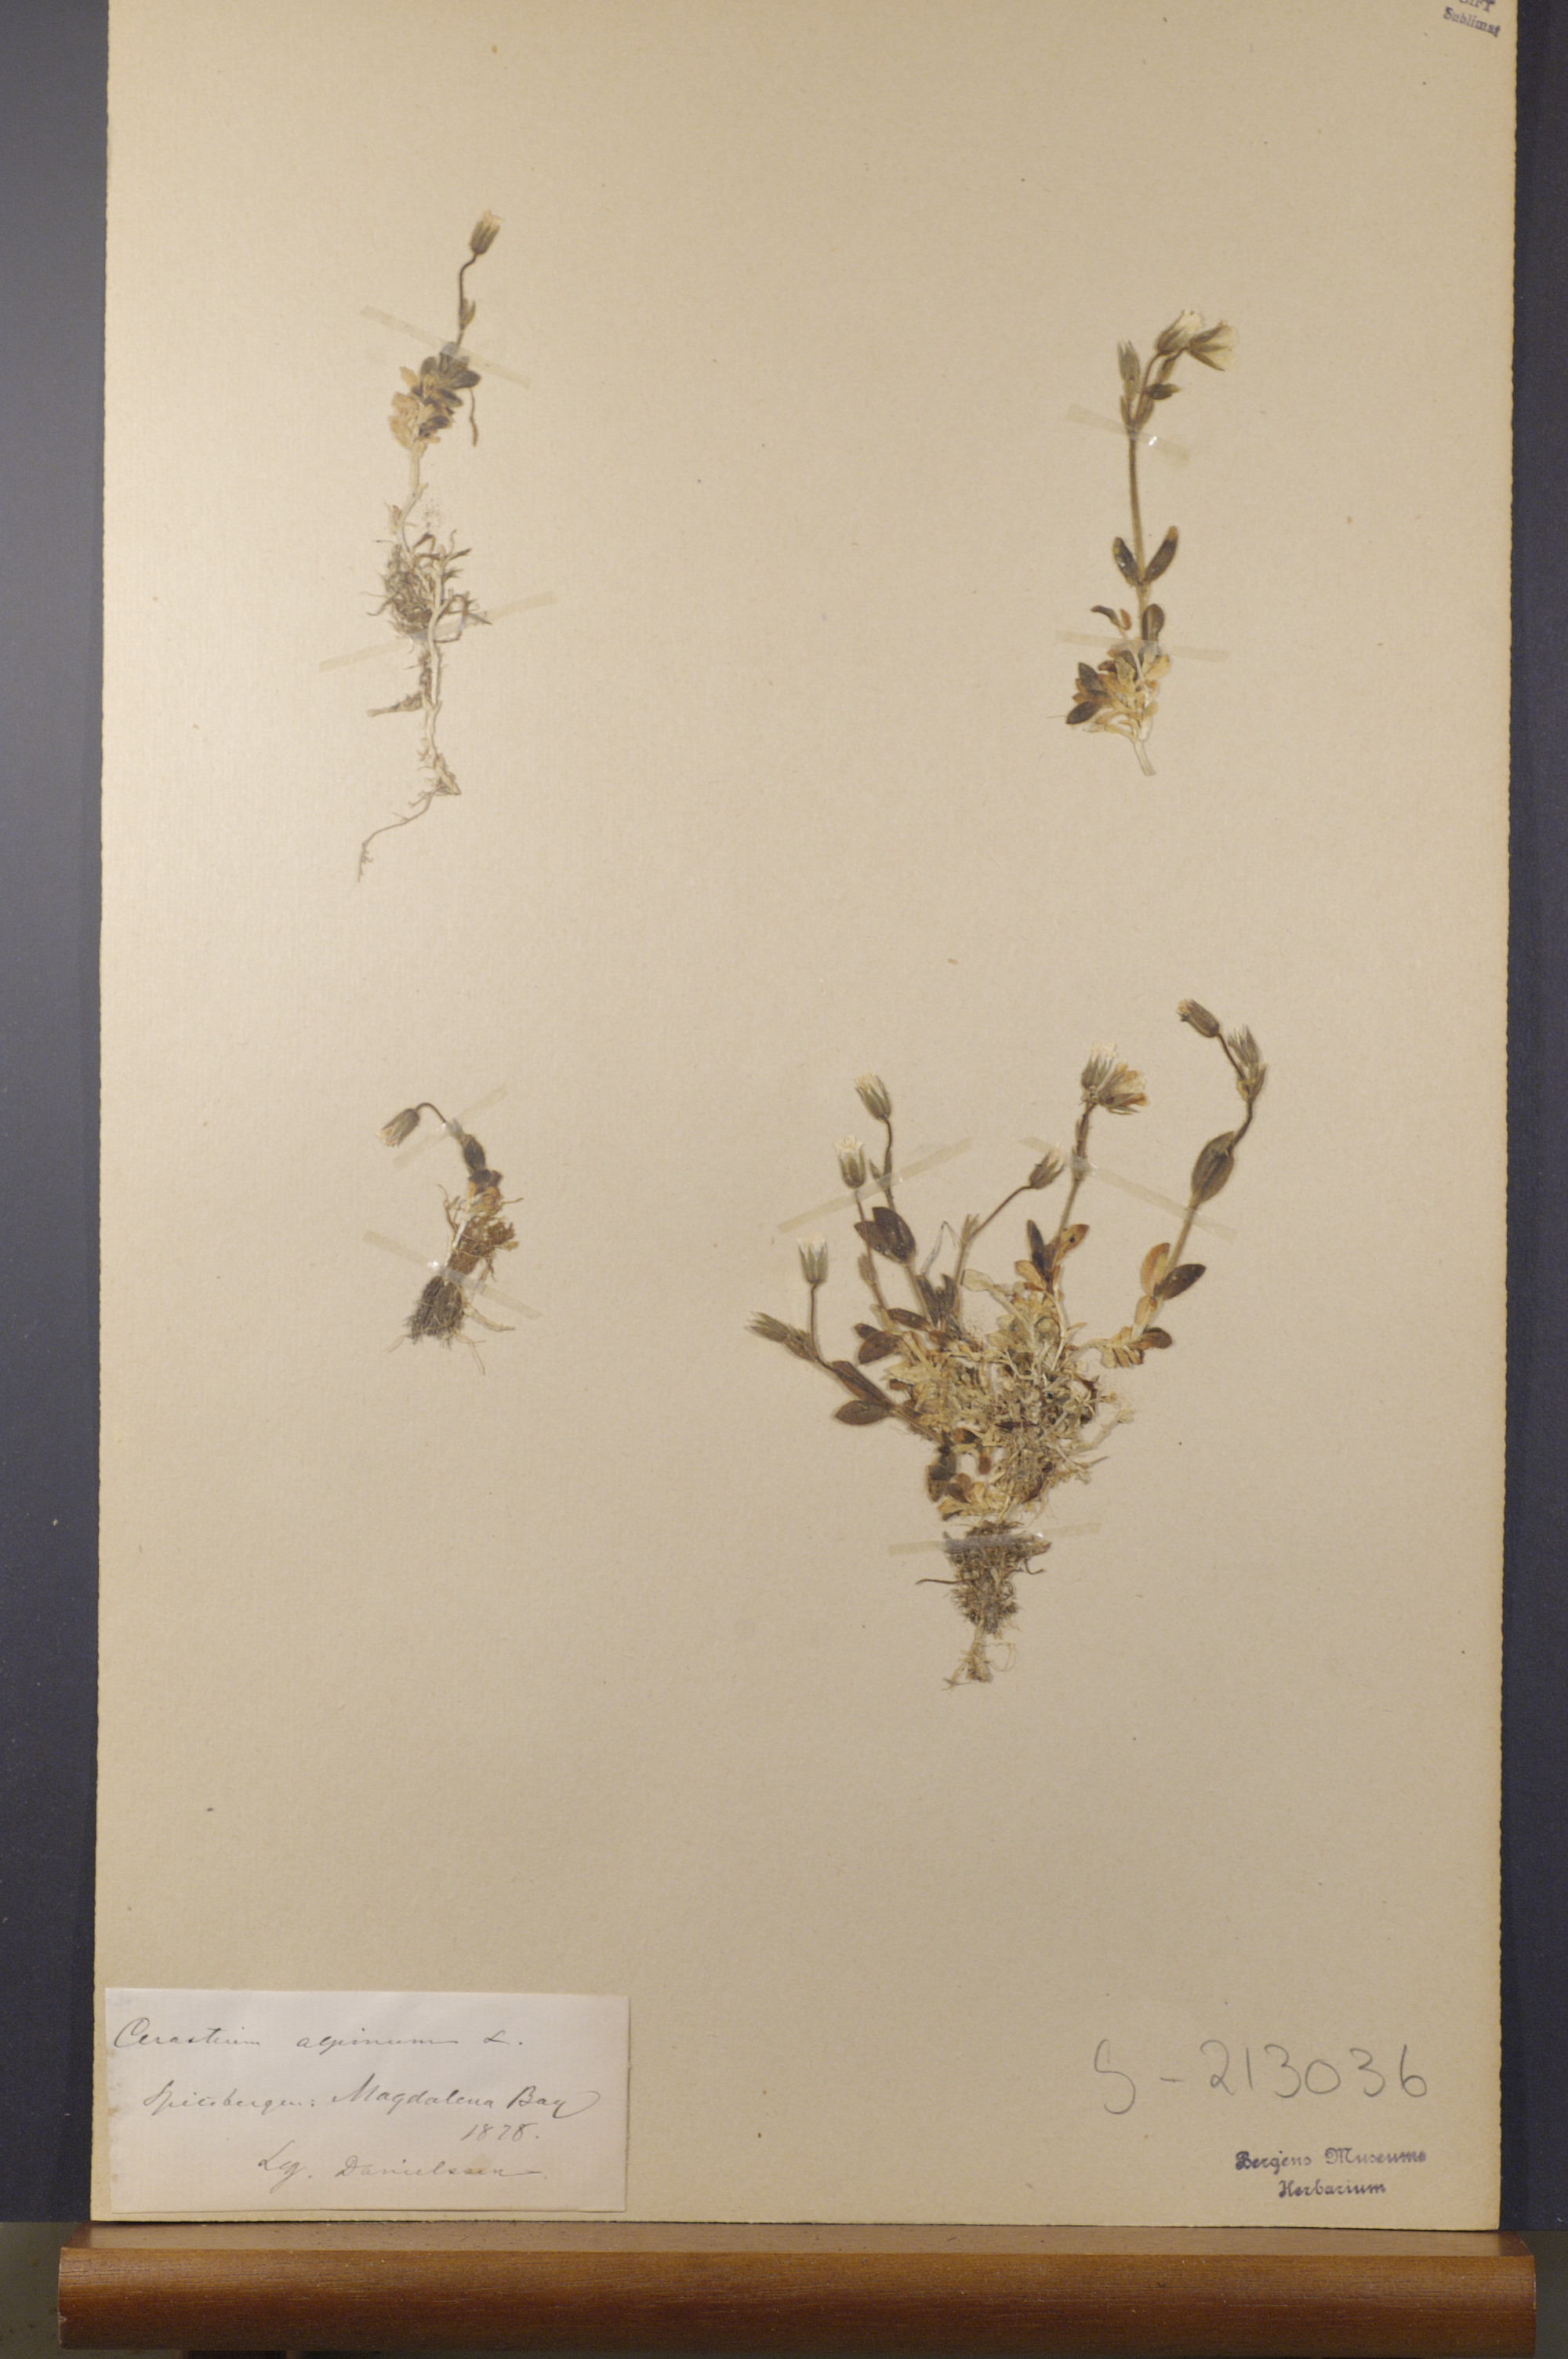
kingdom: Plantae
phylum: Tracheophyta
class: Magnoliopsida
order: Caryophyllales
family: Caryophyllaceae
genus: Cerastium
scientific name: Cerastium alpinum
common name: Alpine mouse-ear
